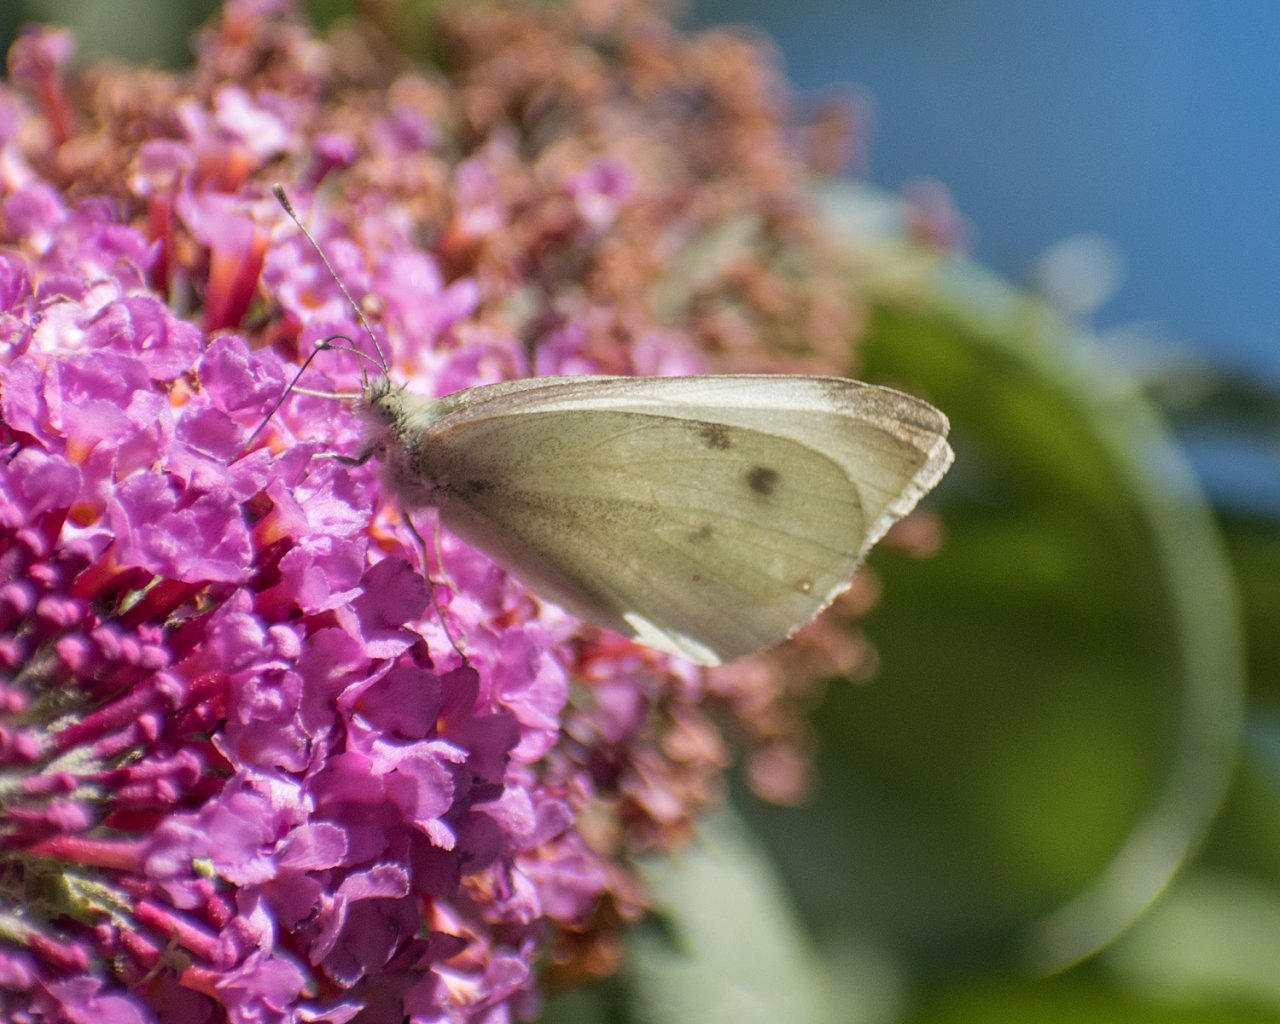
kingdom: Animalia
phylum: Arthropoda
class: Insecta
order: Lepidoptera
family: Pieridae
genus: Pieris
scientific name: Pieris rapae
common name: Cabbage White
